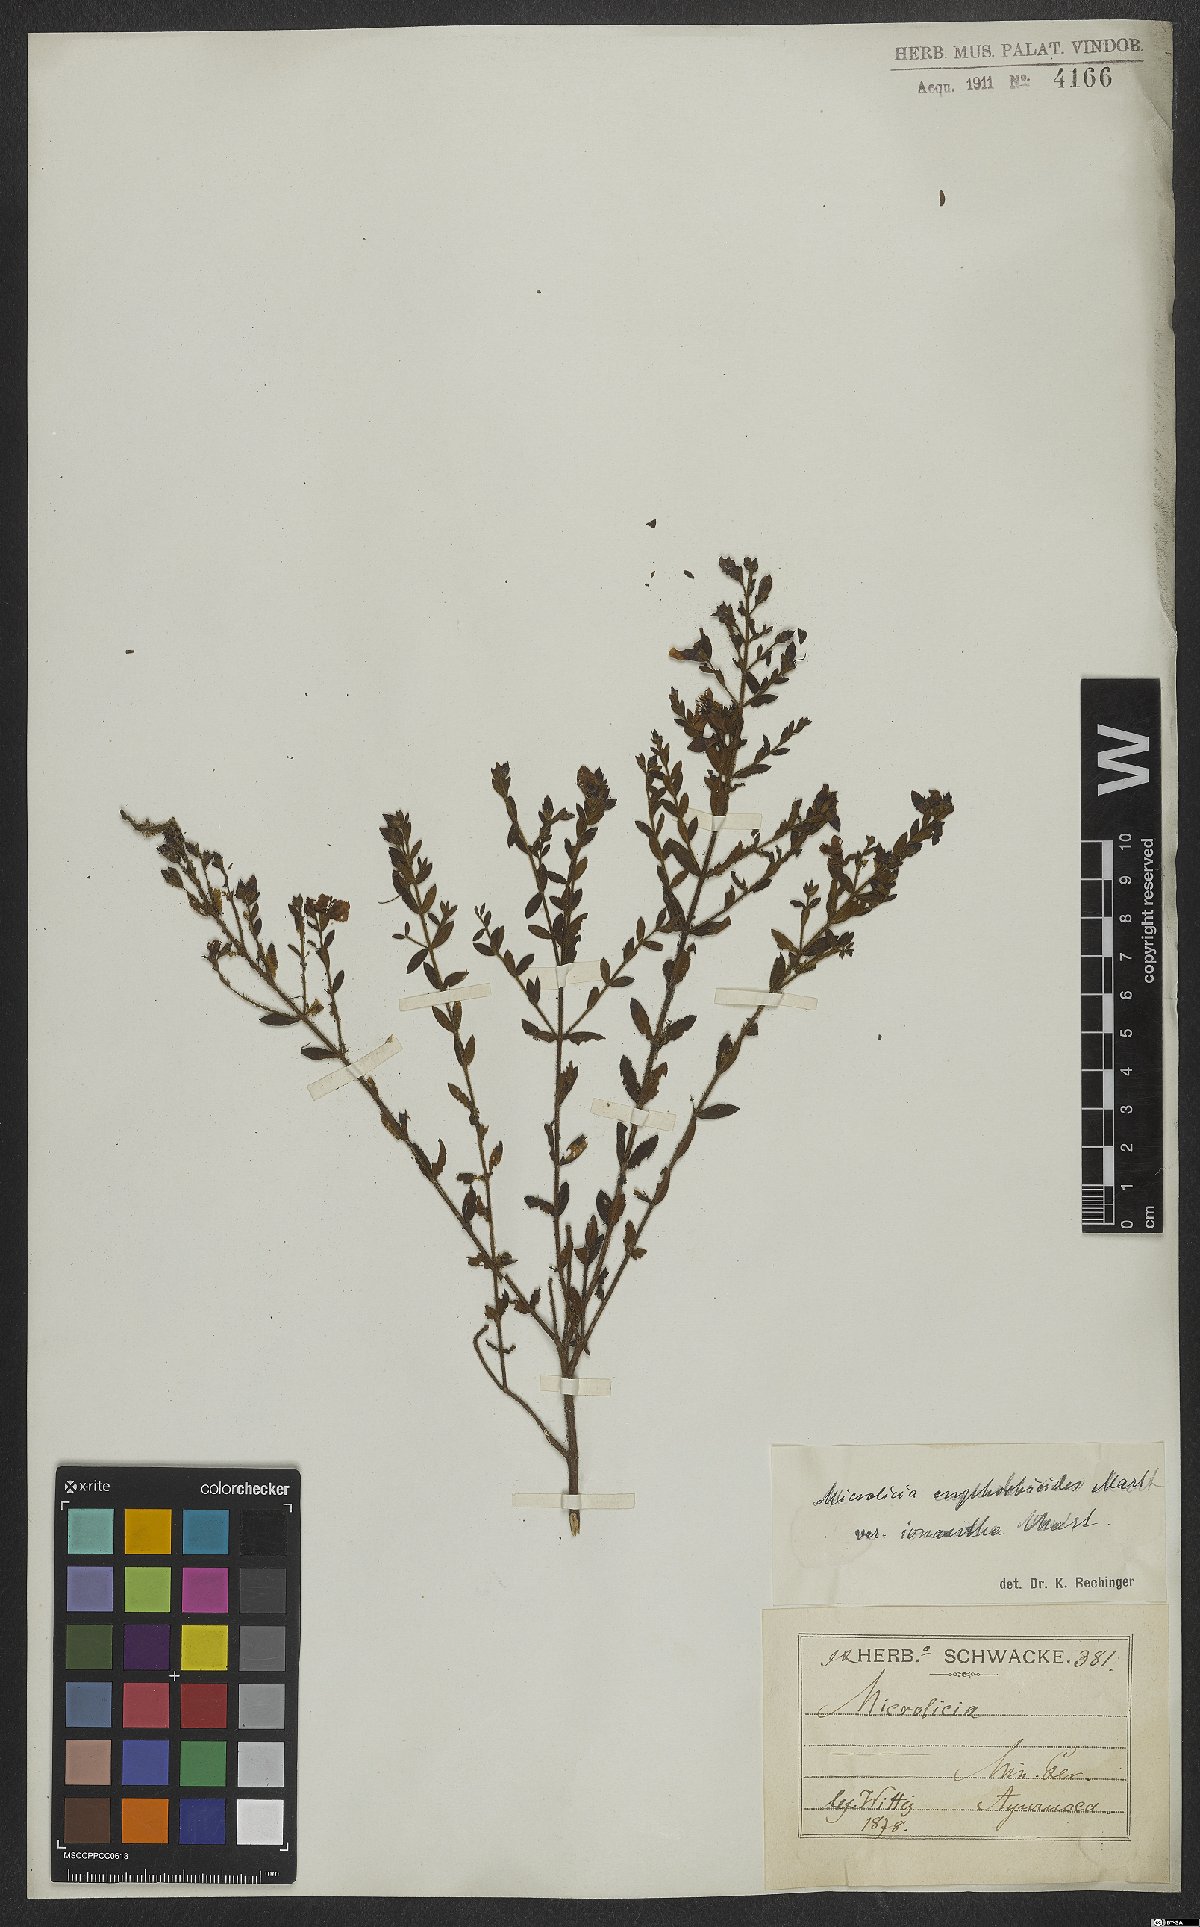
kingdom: Plantae
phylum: Tracheophyta
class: Magnoliopsida
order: Myrtales
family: Melastomataceae
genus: Microlicia
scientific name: Microlicia euphorbioides
